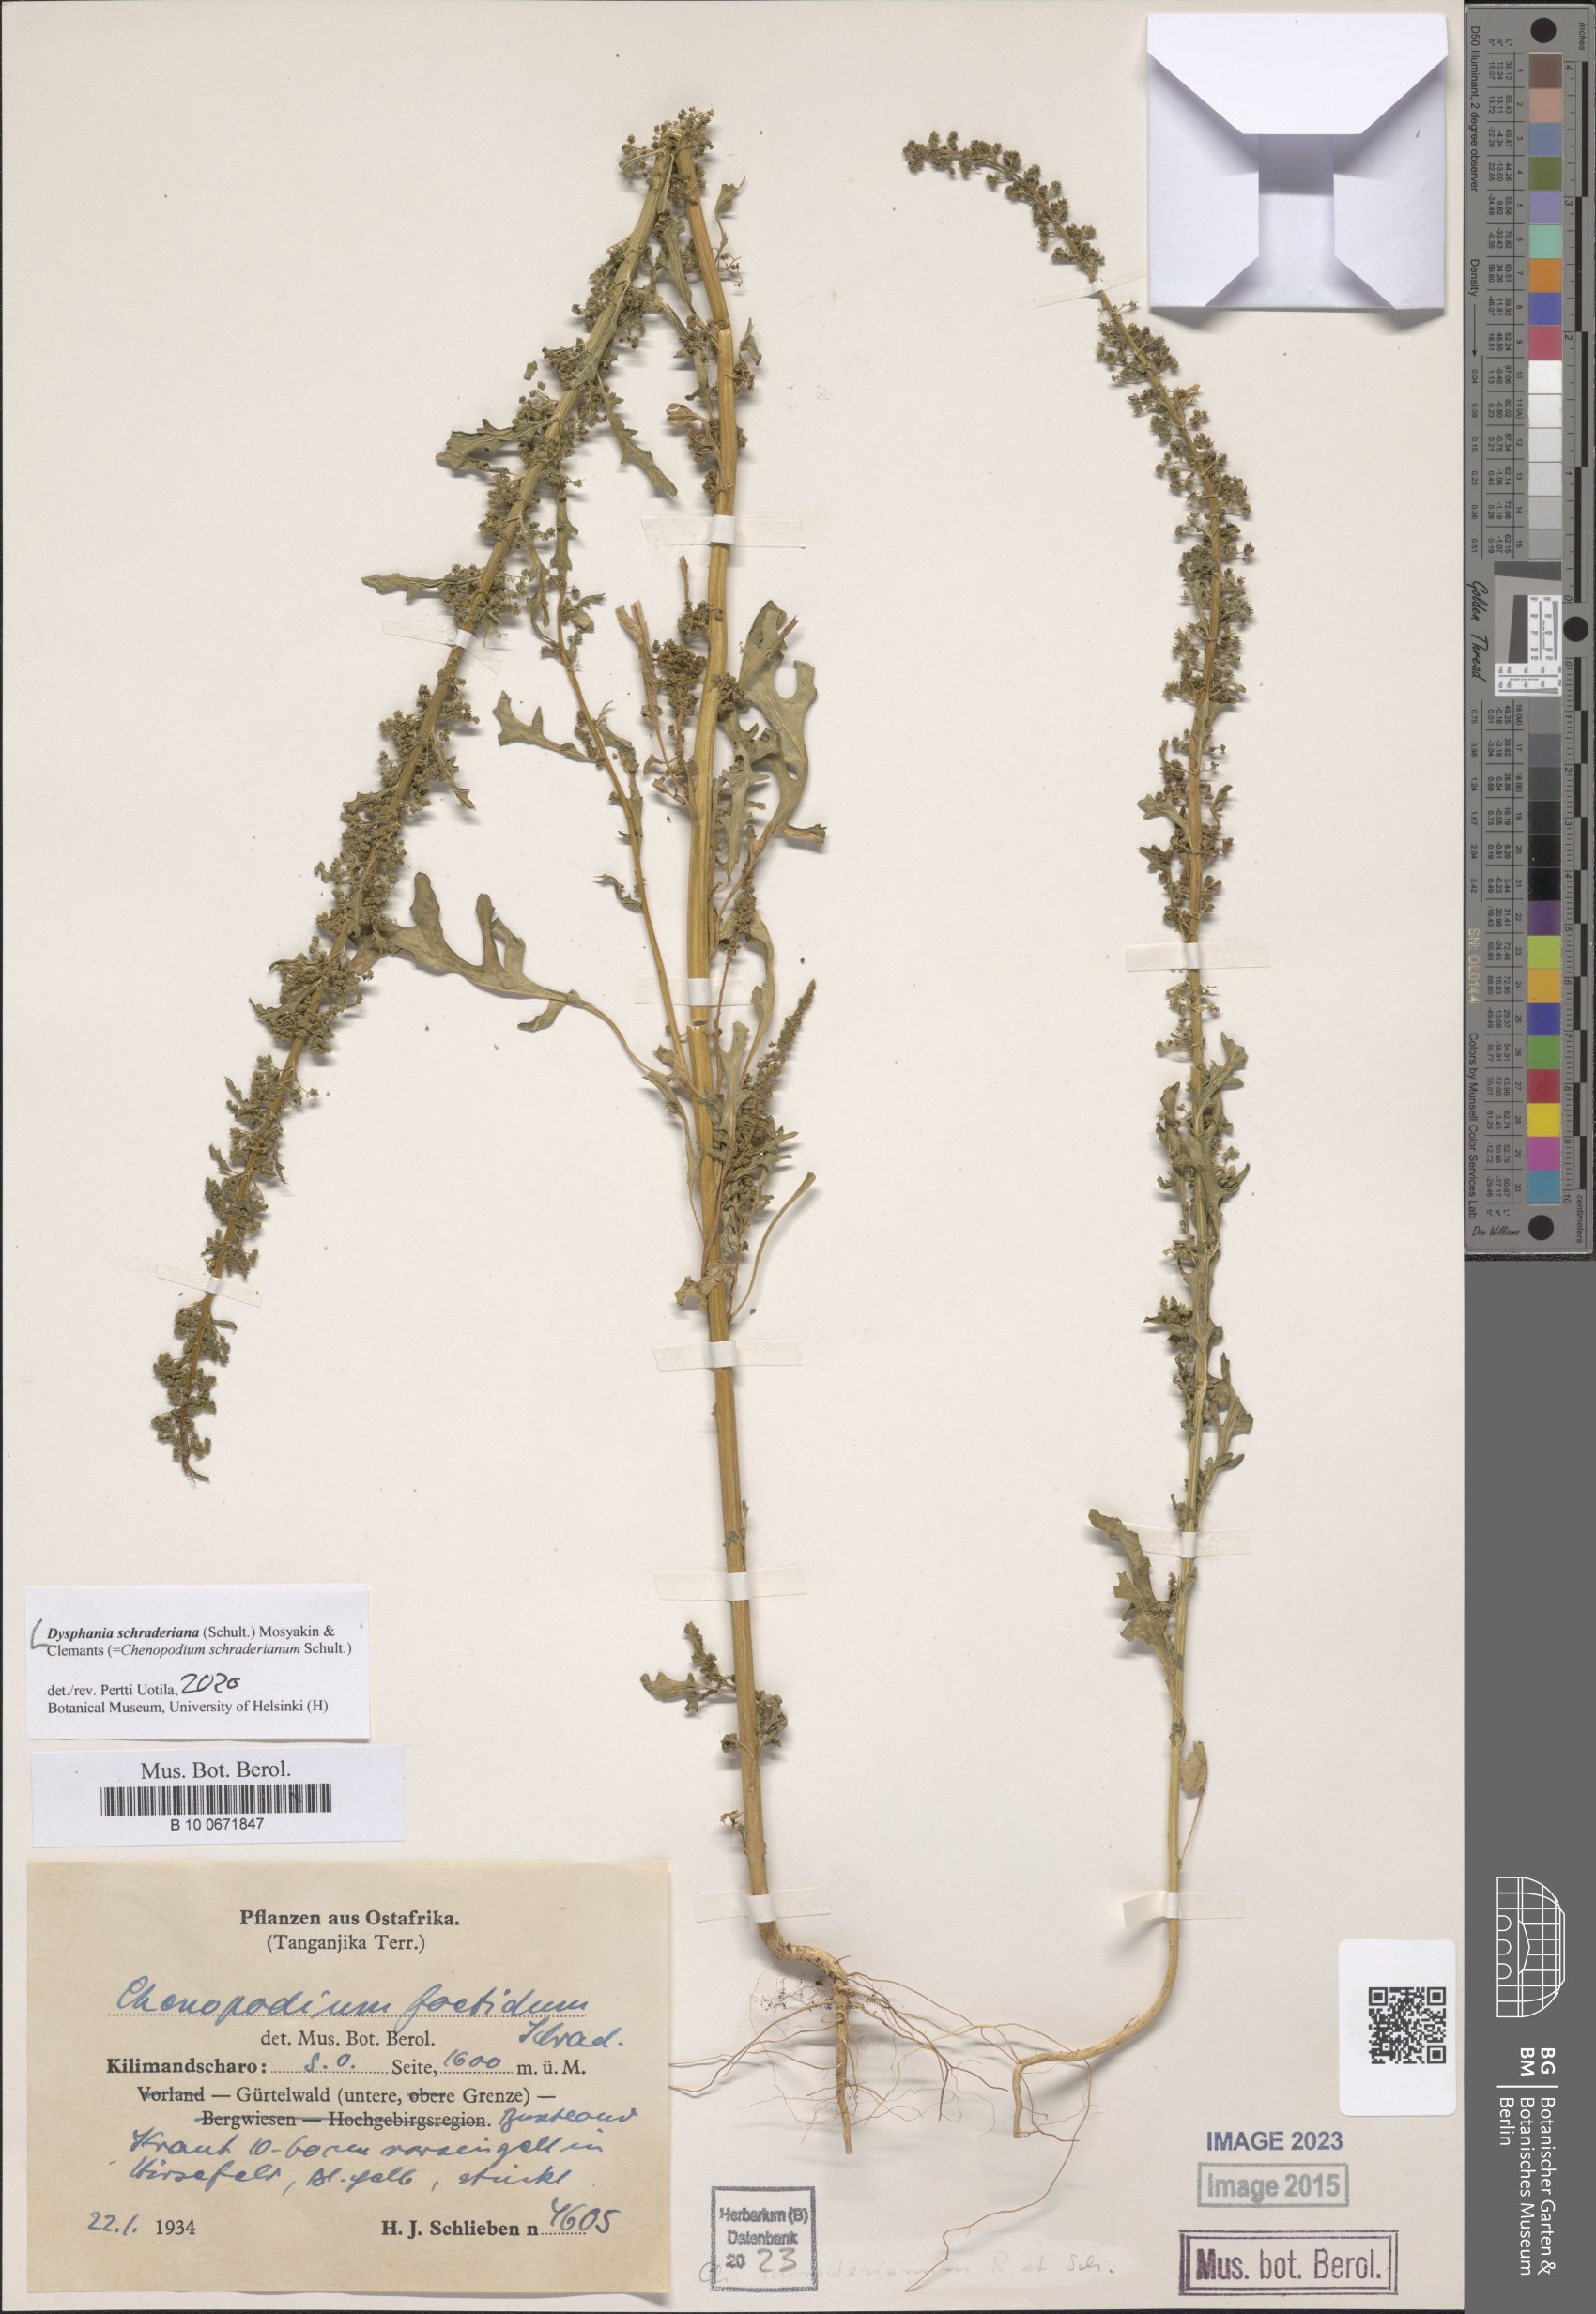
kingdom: Plantae
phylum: Tracheophyta
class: Magnoliopsida
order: Caryophyllales
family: Amaranthaceae
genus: Dysphania
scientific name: Dysphania schraderiana
